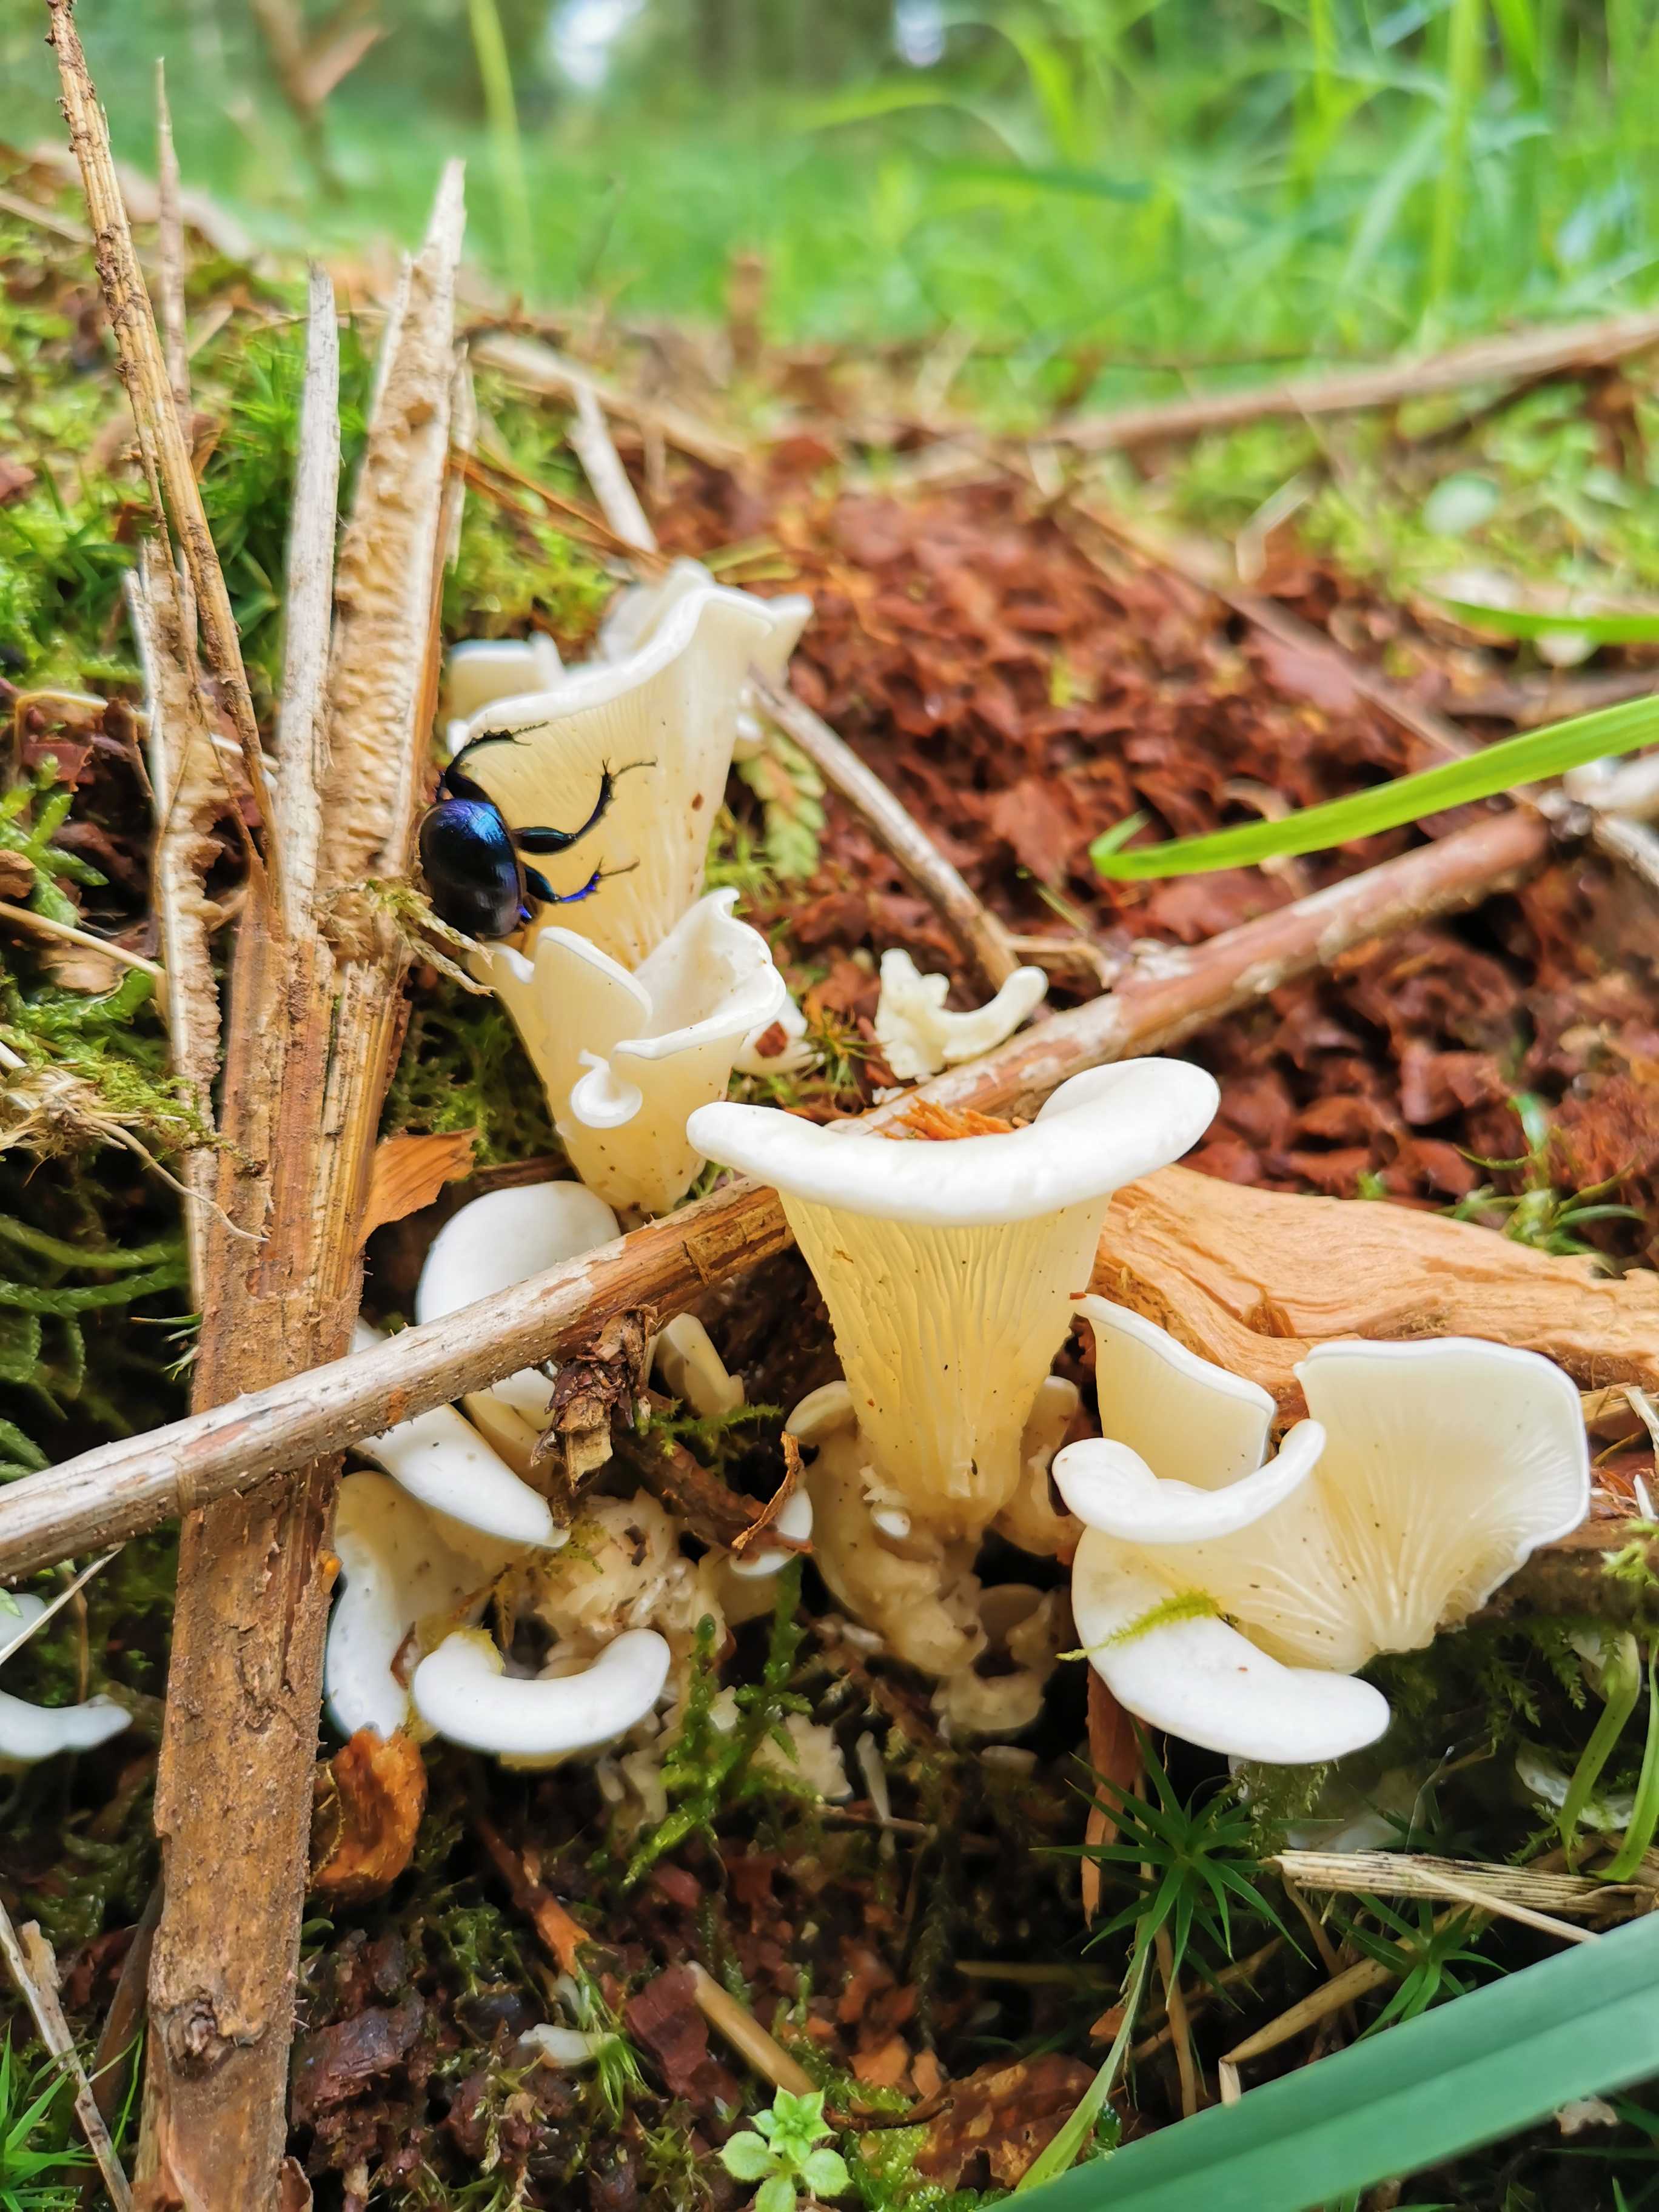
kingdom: Fungi
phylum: Basidiomycota
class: Agaricomycetes
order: Agaricales
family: Marasmiaceae
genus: Pleurocybella
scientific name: Pleurocybella porrigens
